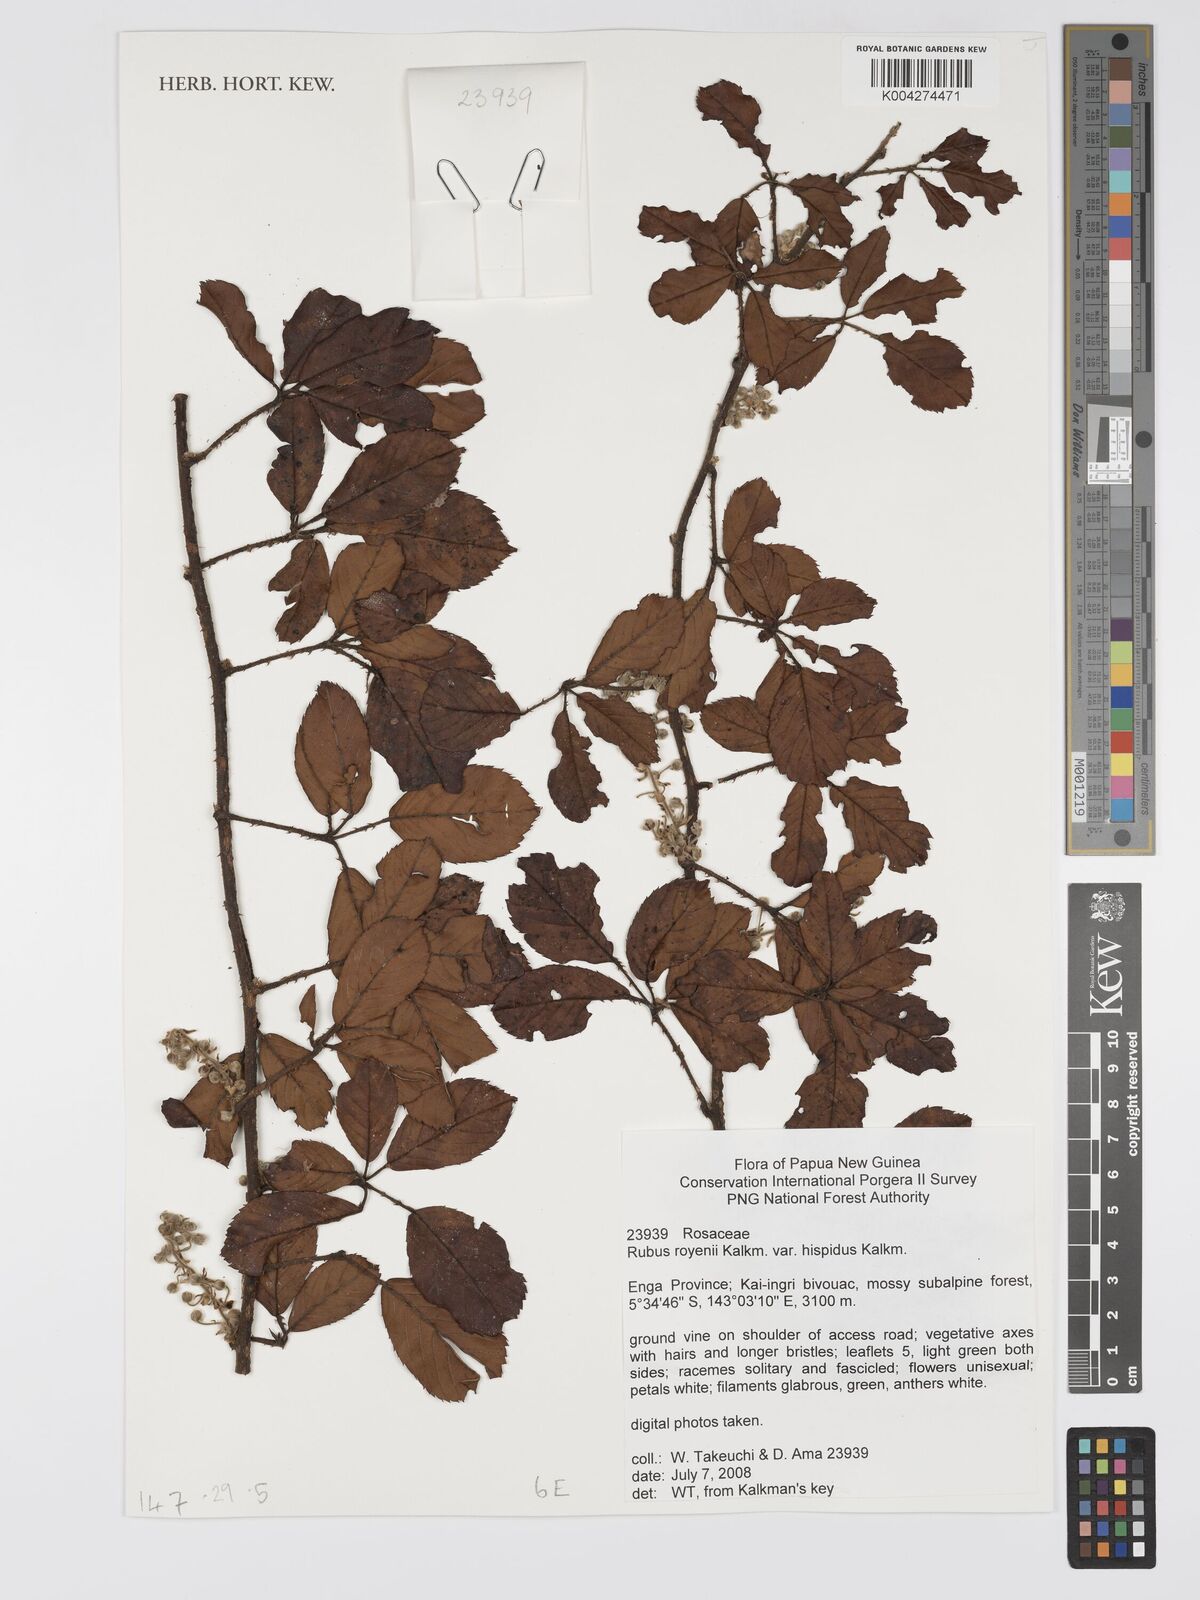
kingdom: Plantae
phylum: Tracheophyta
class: Magnoliopsida
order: Rosales
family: Rosaceae
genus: Rubus
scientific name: Rubus royenii
